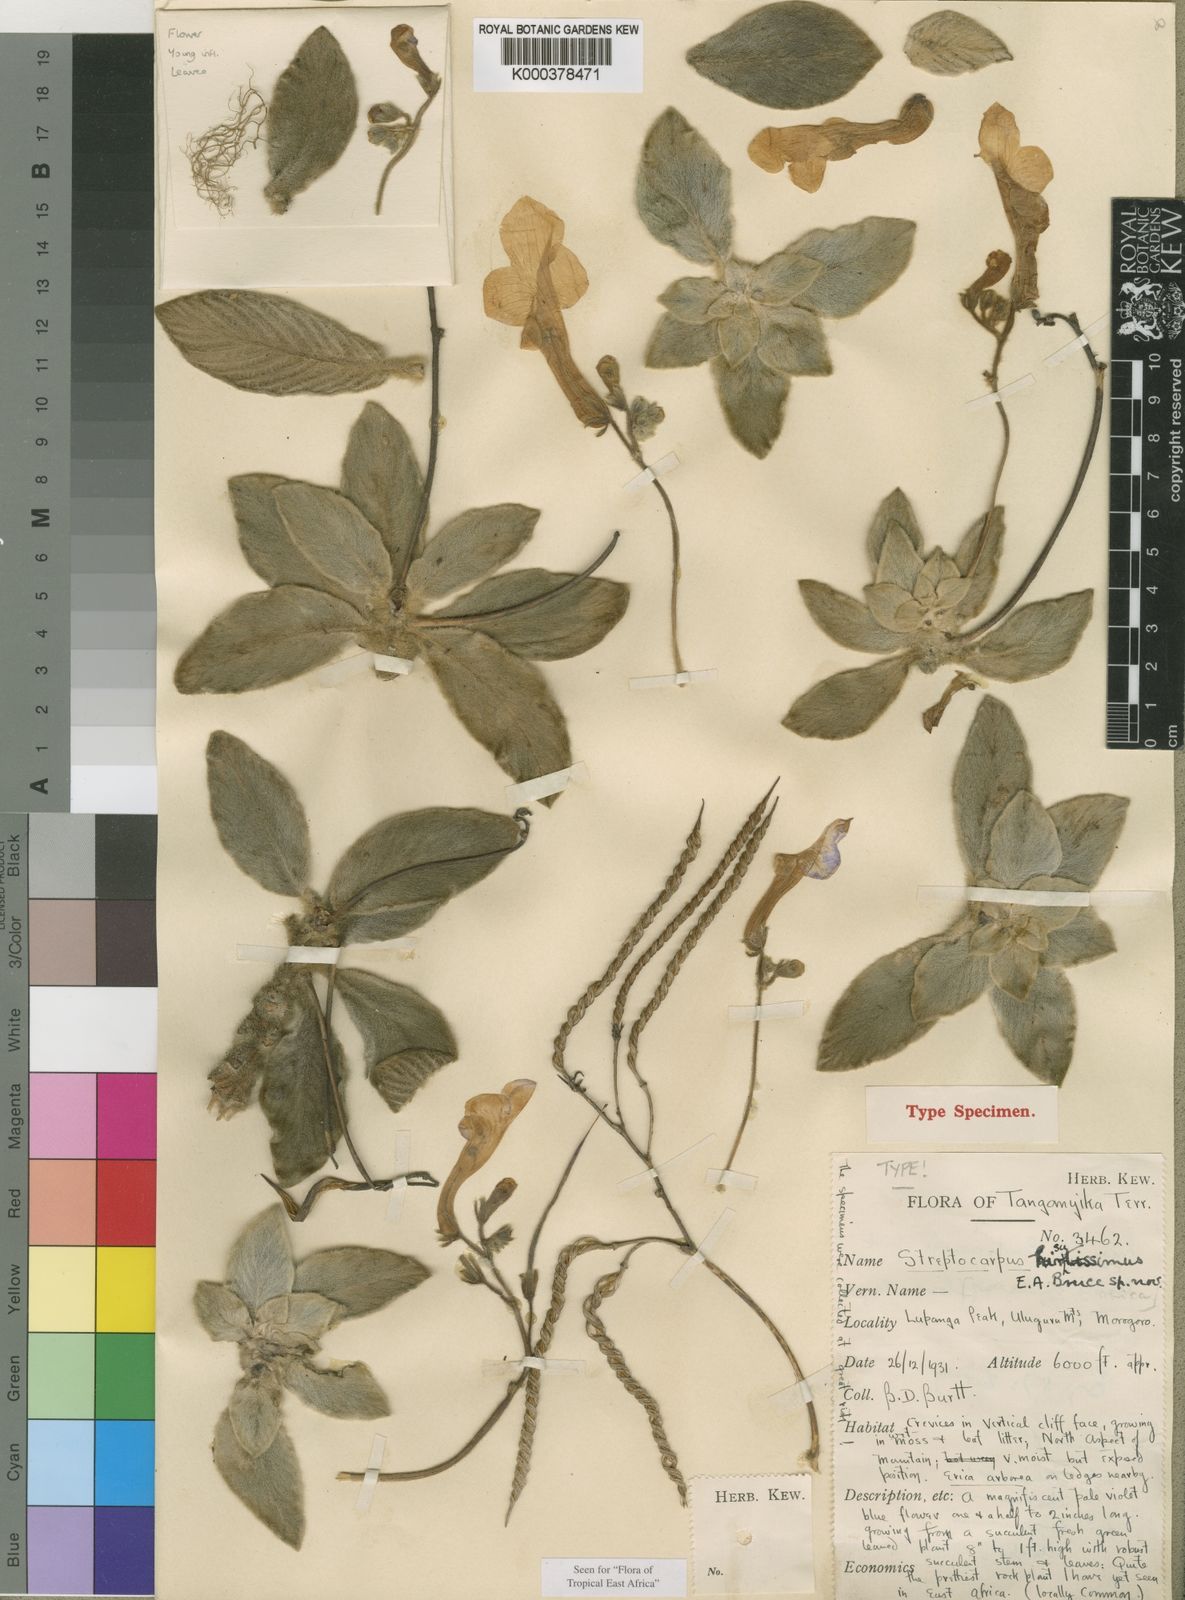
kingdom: Plantae
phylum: Tracheophyta
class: Magnoliopsida
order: Lamiales
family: Gesneriaceae
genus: Streptocarpus
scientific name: Streptocarpus hirsutissimus
